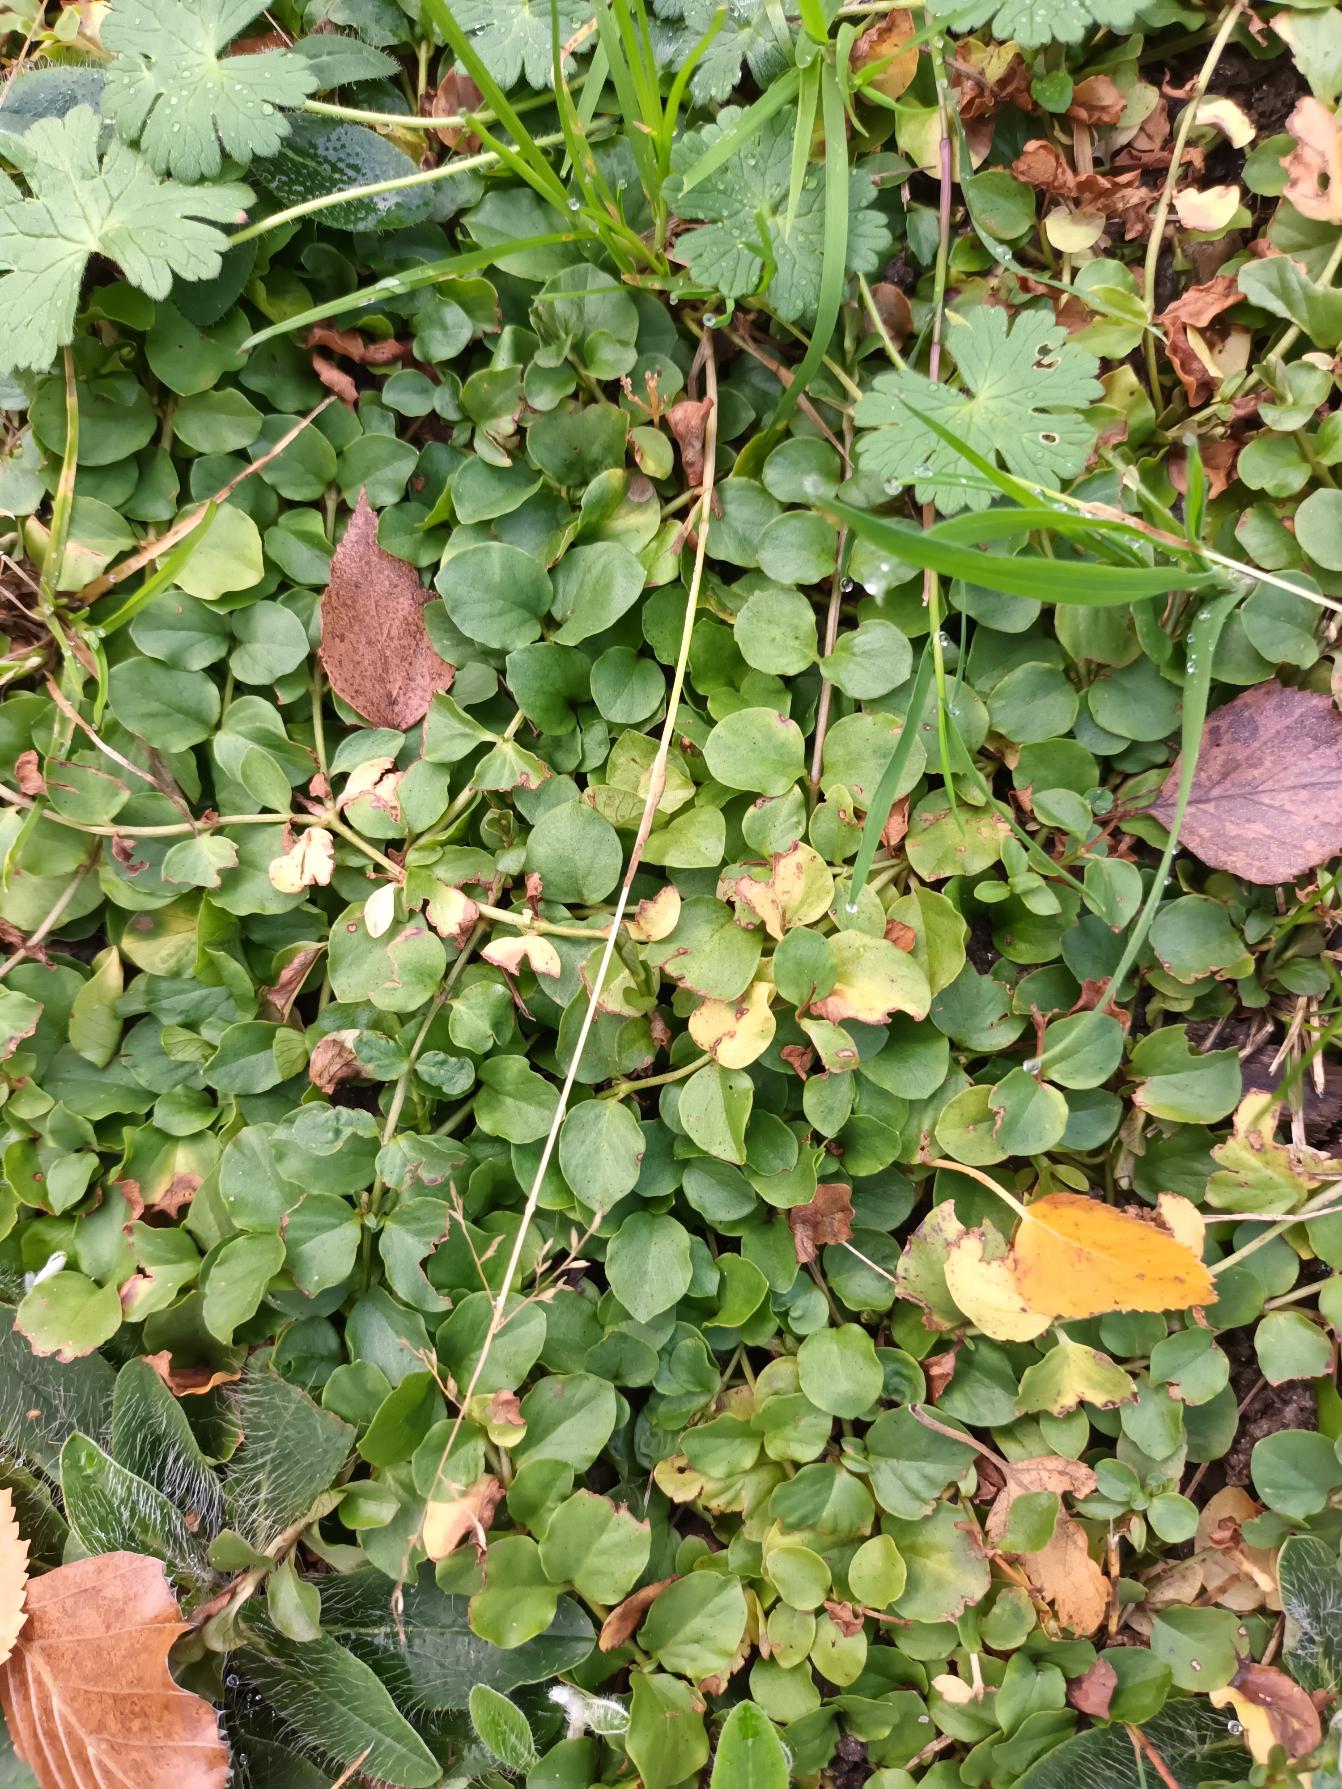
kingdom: Plantae
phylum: Tracheophyta
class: Magnoliopsida
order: Ericales
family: Primulaceae
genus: Lysimachia
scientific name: Lysimachia nummularia
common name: Pengebladet fredløs
